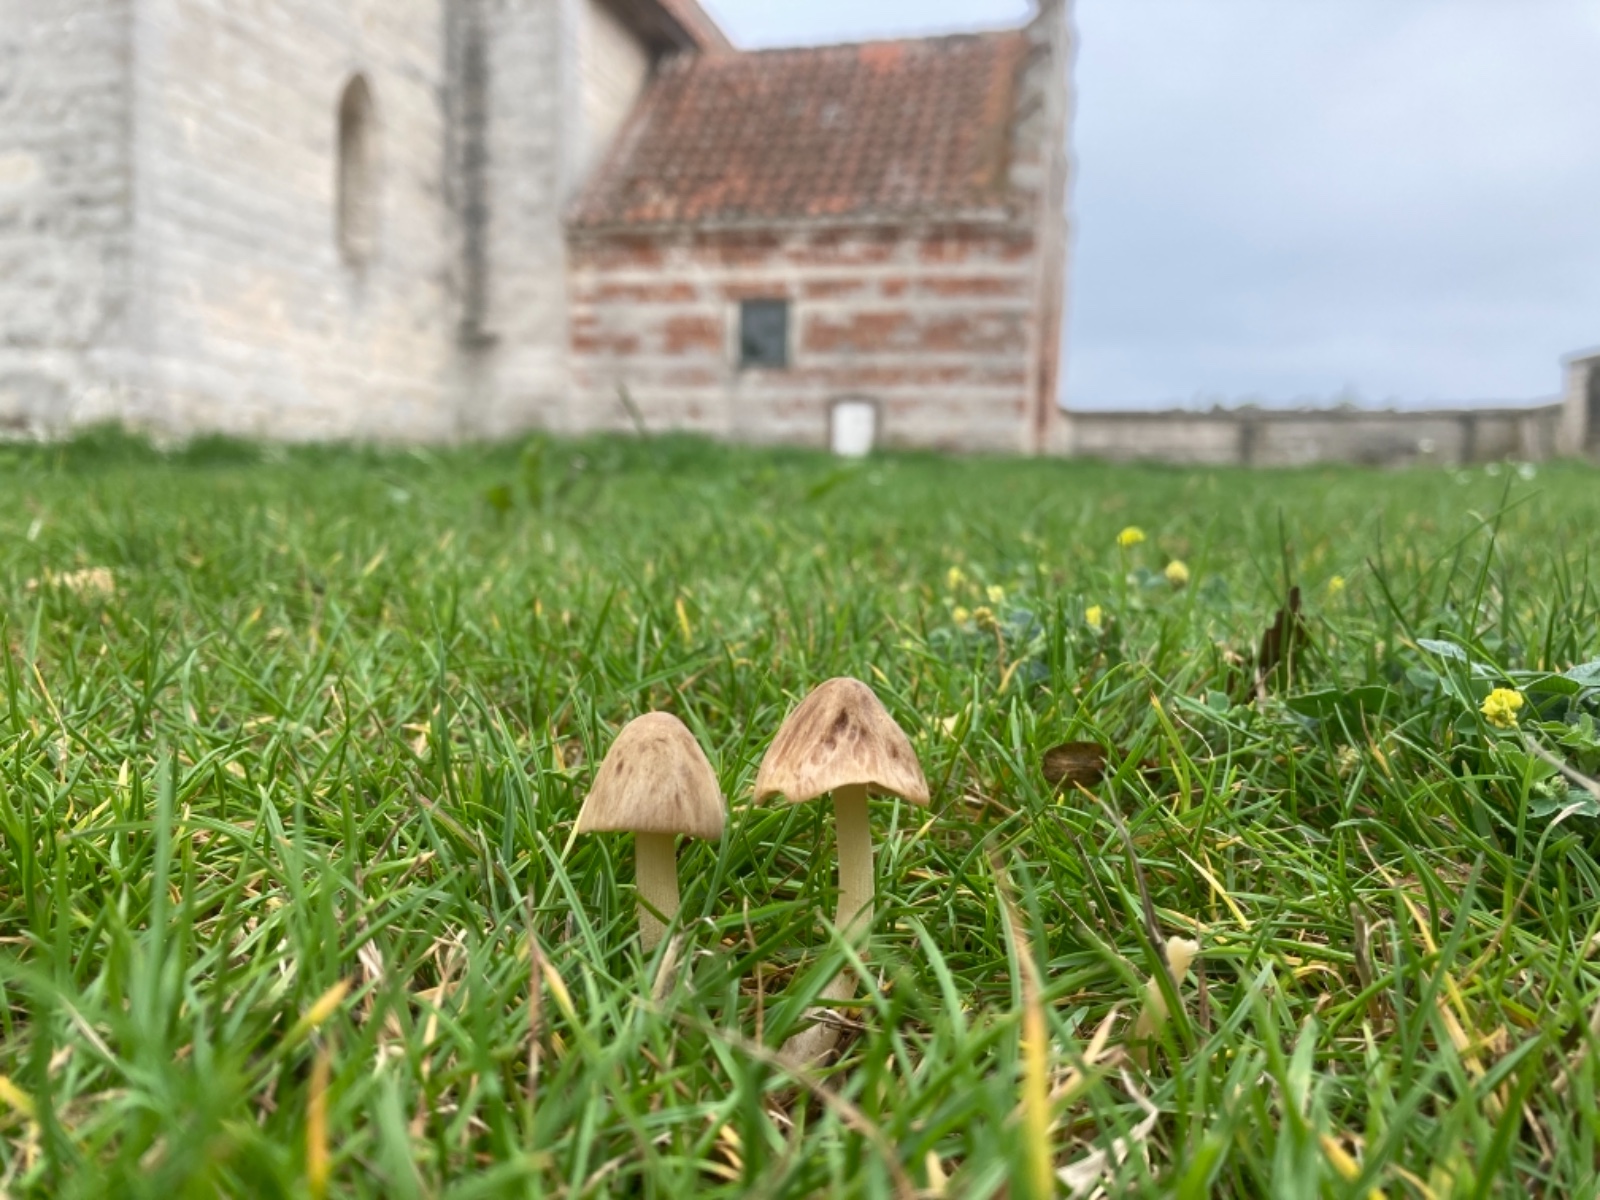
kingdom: Fungi
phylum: Basidiomycota
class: Agaricomycetes
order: Agaricales
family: Bolbitiaceae
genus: Conocybe
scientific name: Conocybe inocybeoides
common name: knold-keglehat
